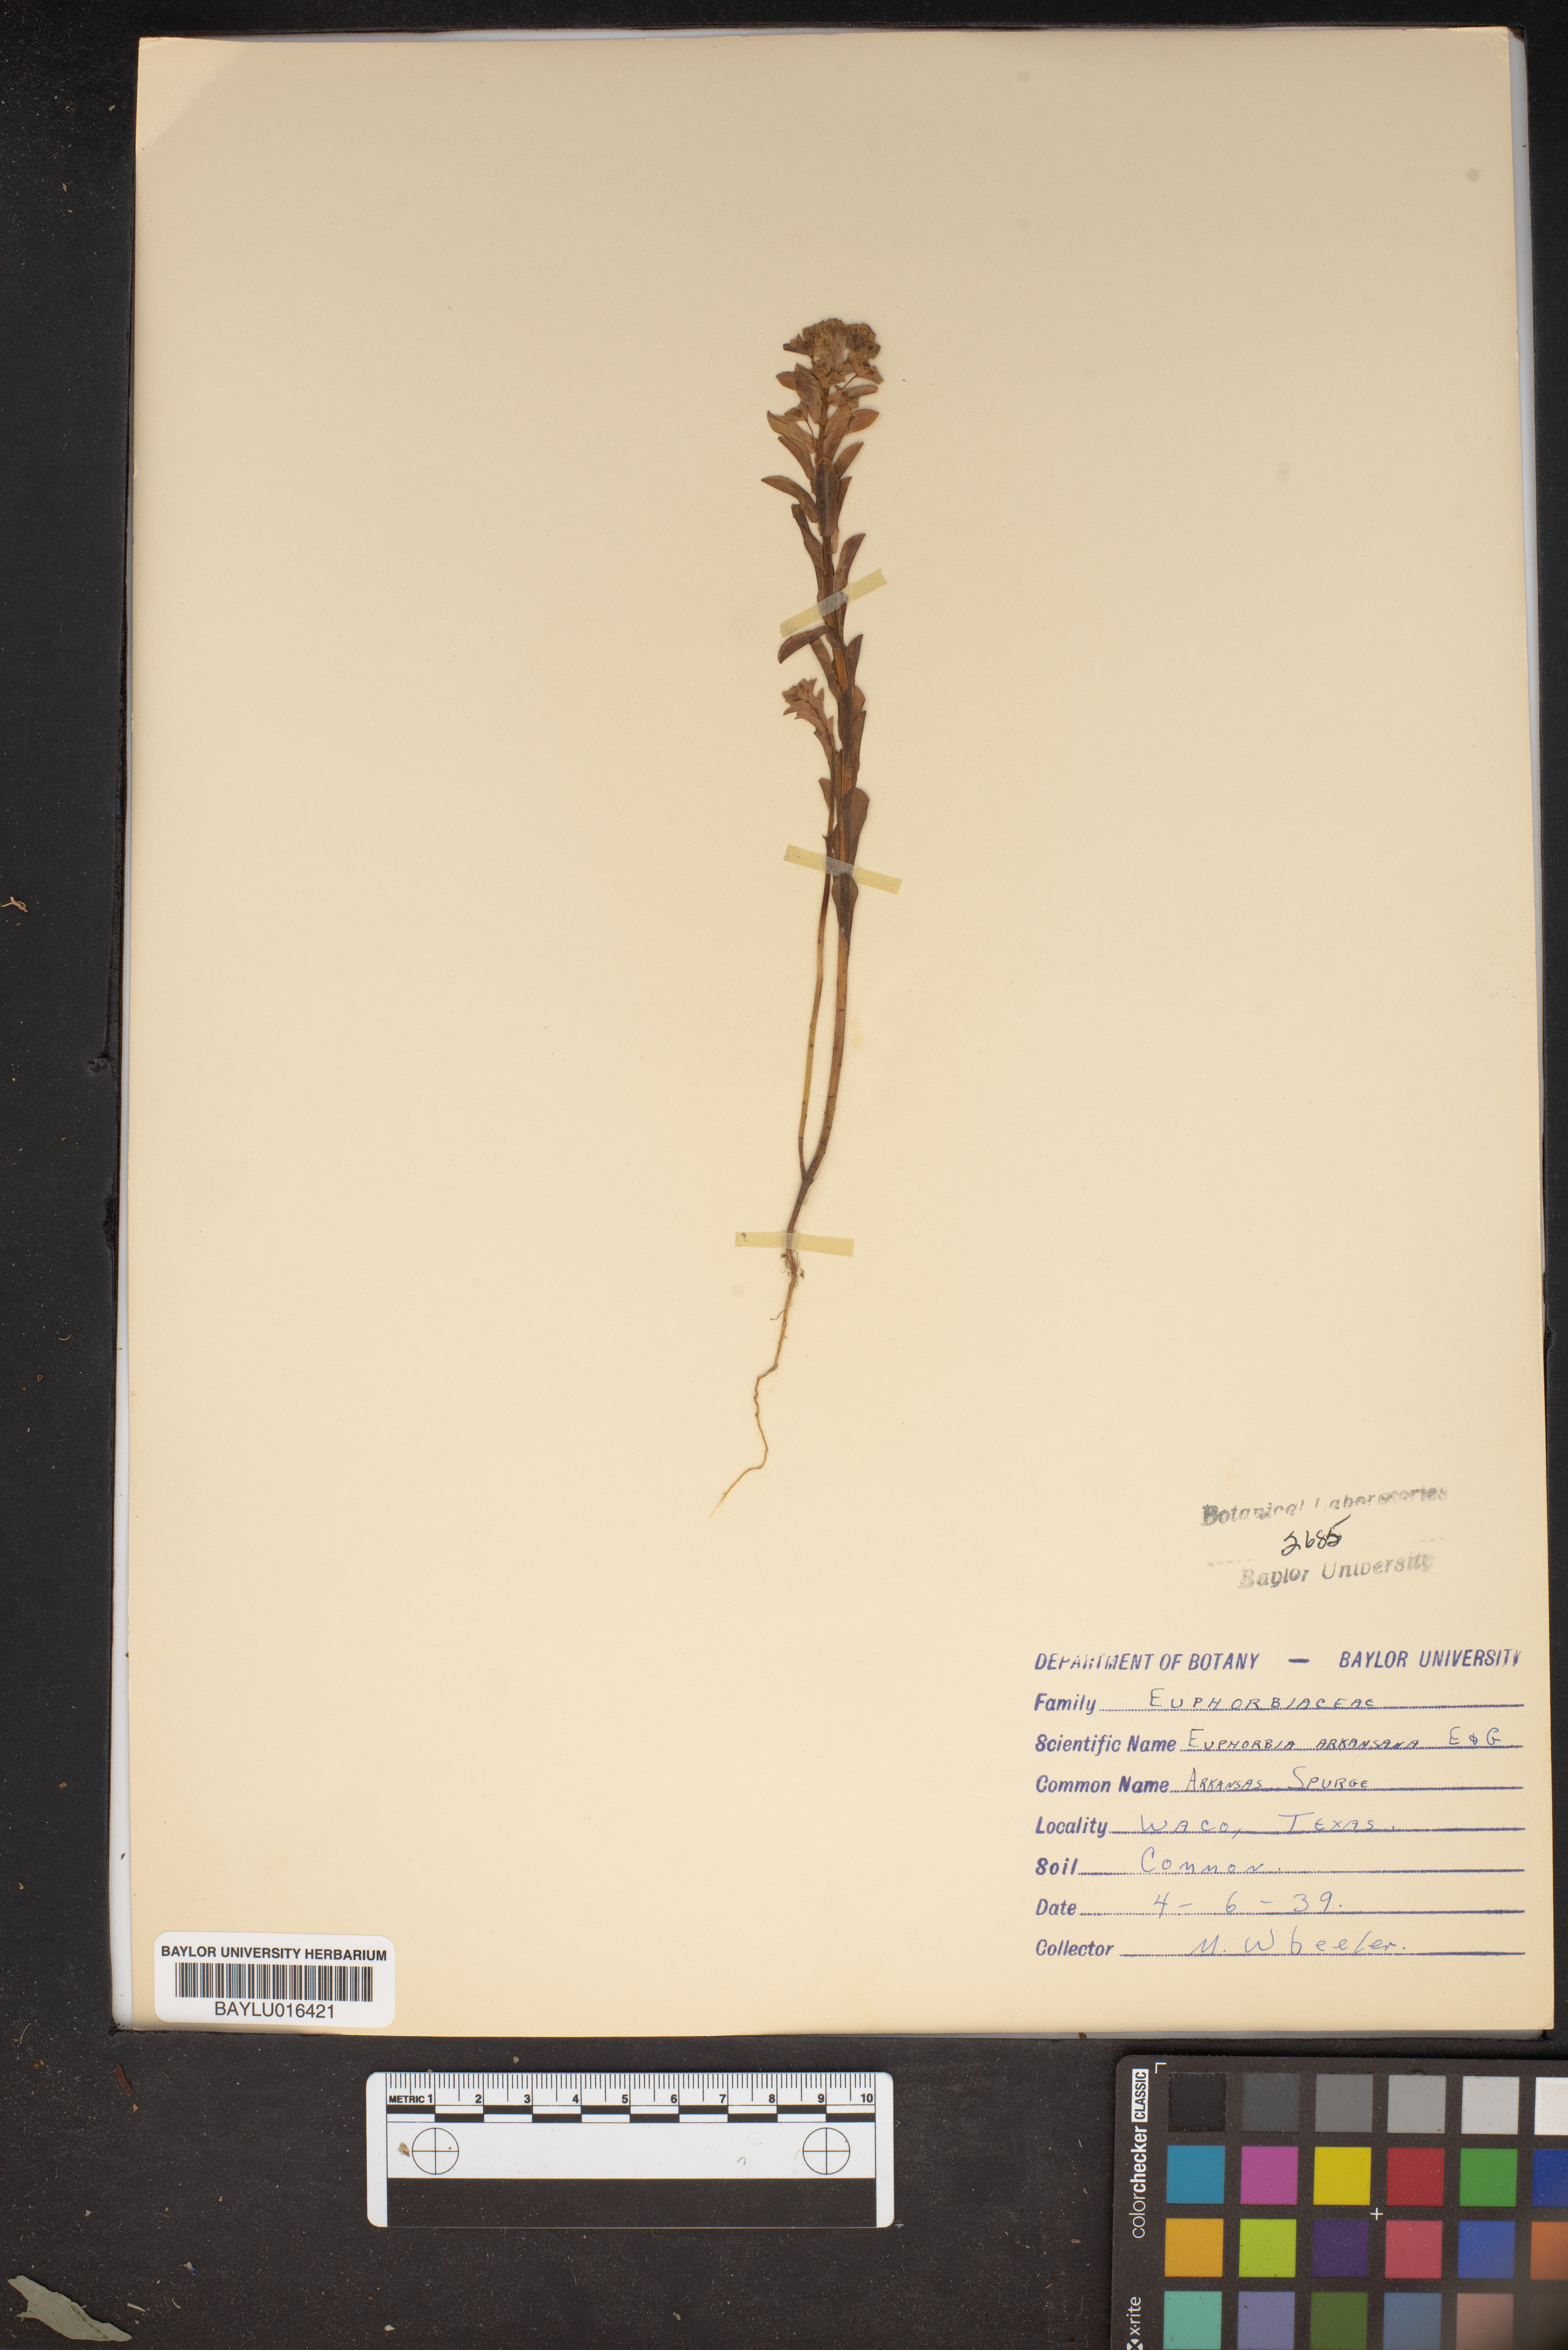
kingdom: Plantae
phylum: Tracheophyta
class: Magnoliopsida
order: Malpighiales
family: Euphorbiaceae
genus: Euphorbia
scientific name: Euphorbia spathulata
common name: Blunt spurge
